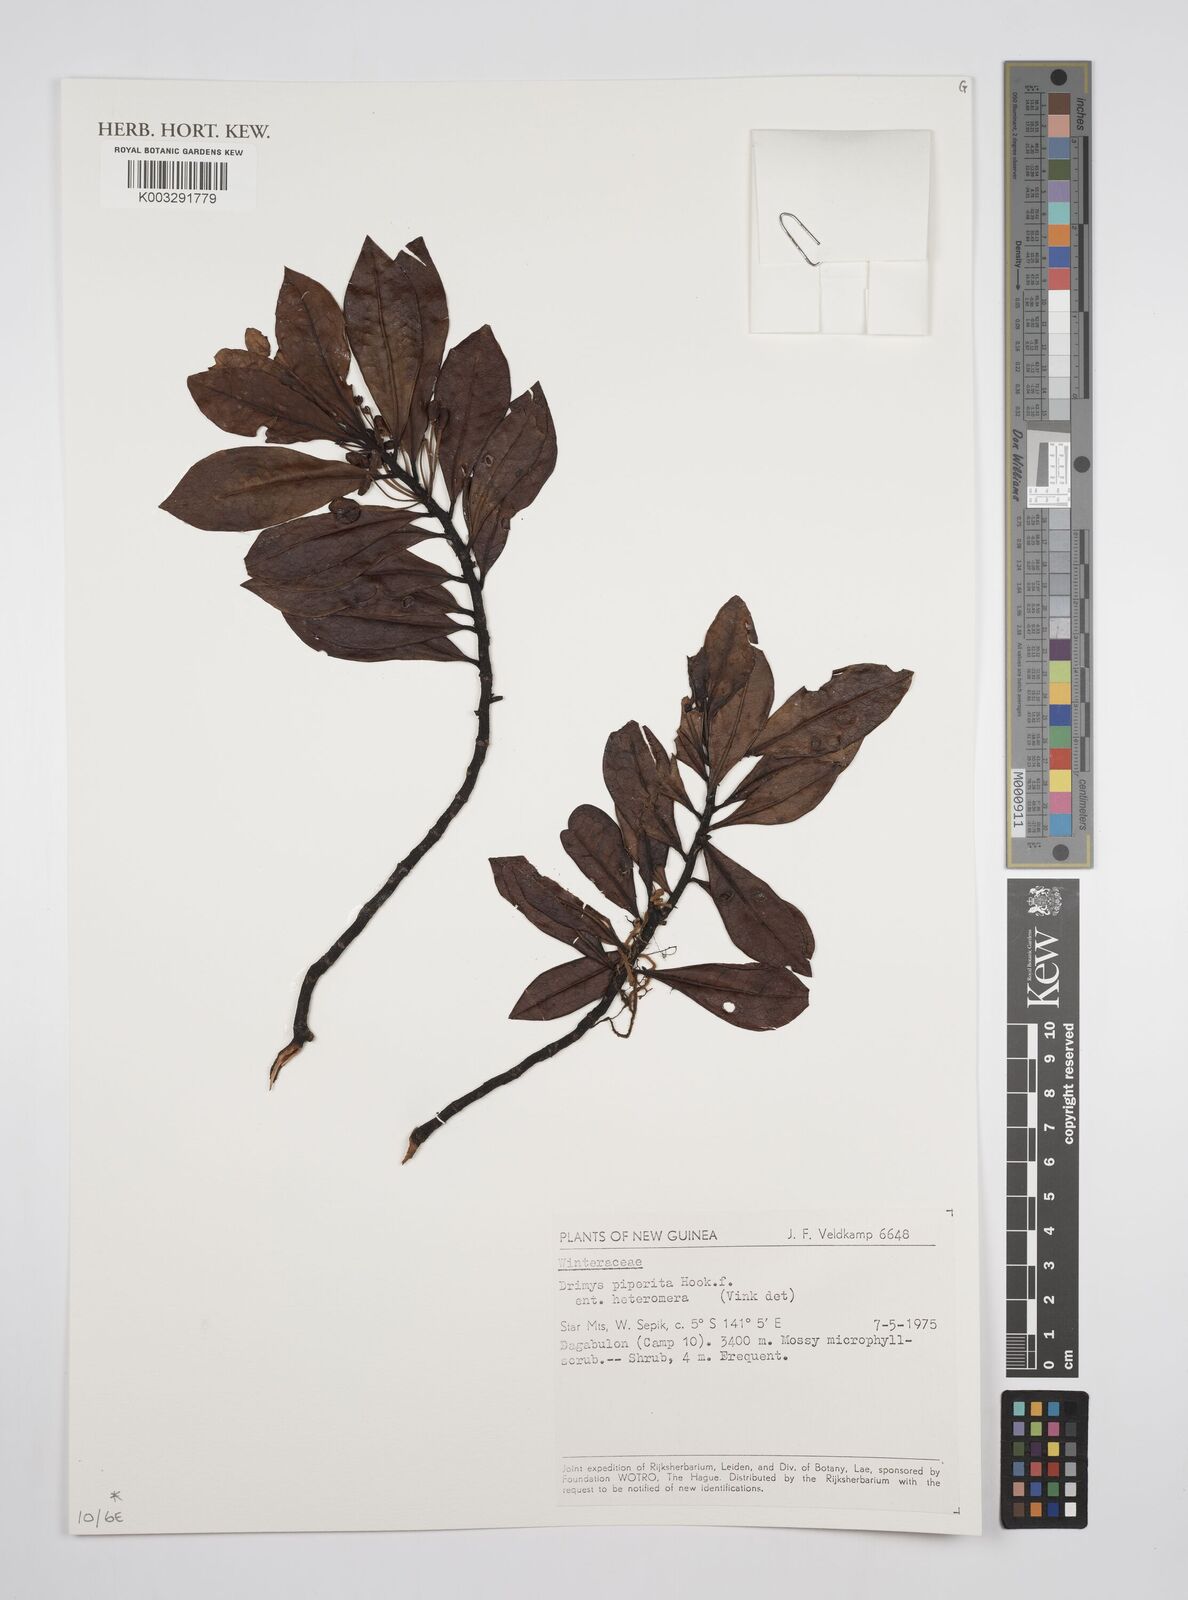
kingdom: Plantae
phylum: Tracheophyta
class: Magnoliopsida
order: Canellales
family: Winteraceae
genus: Drimys
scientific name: Drimys piperita
